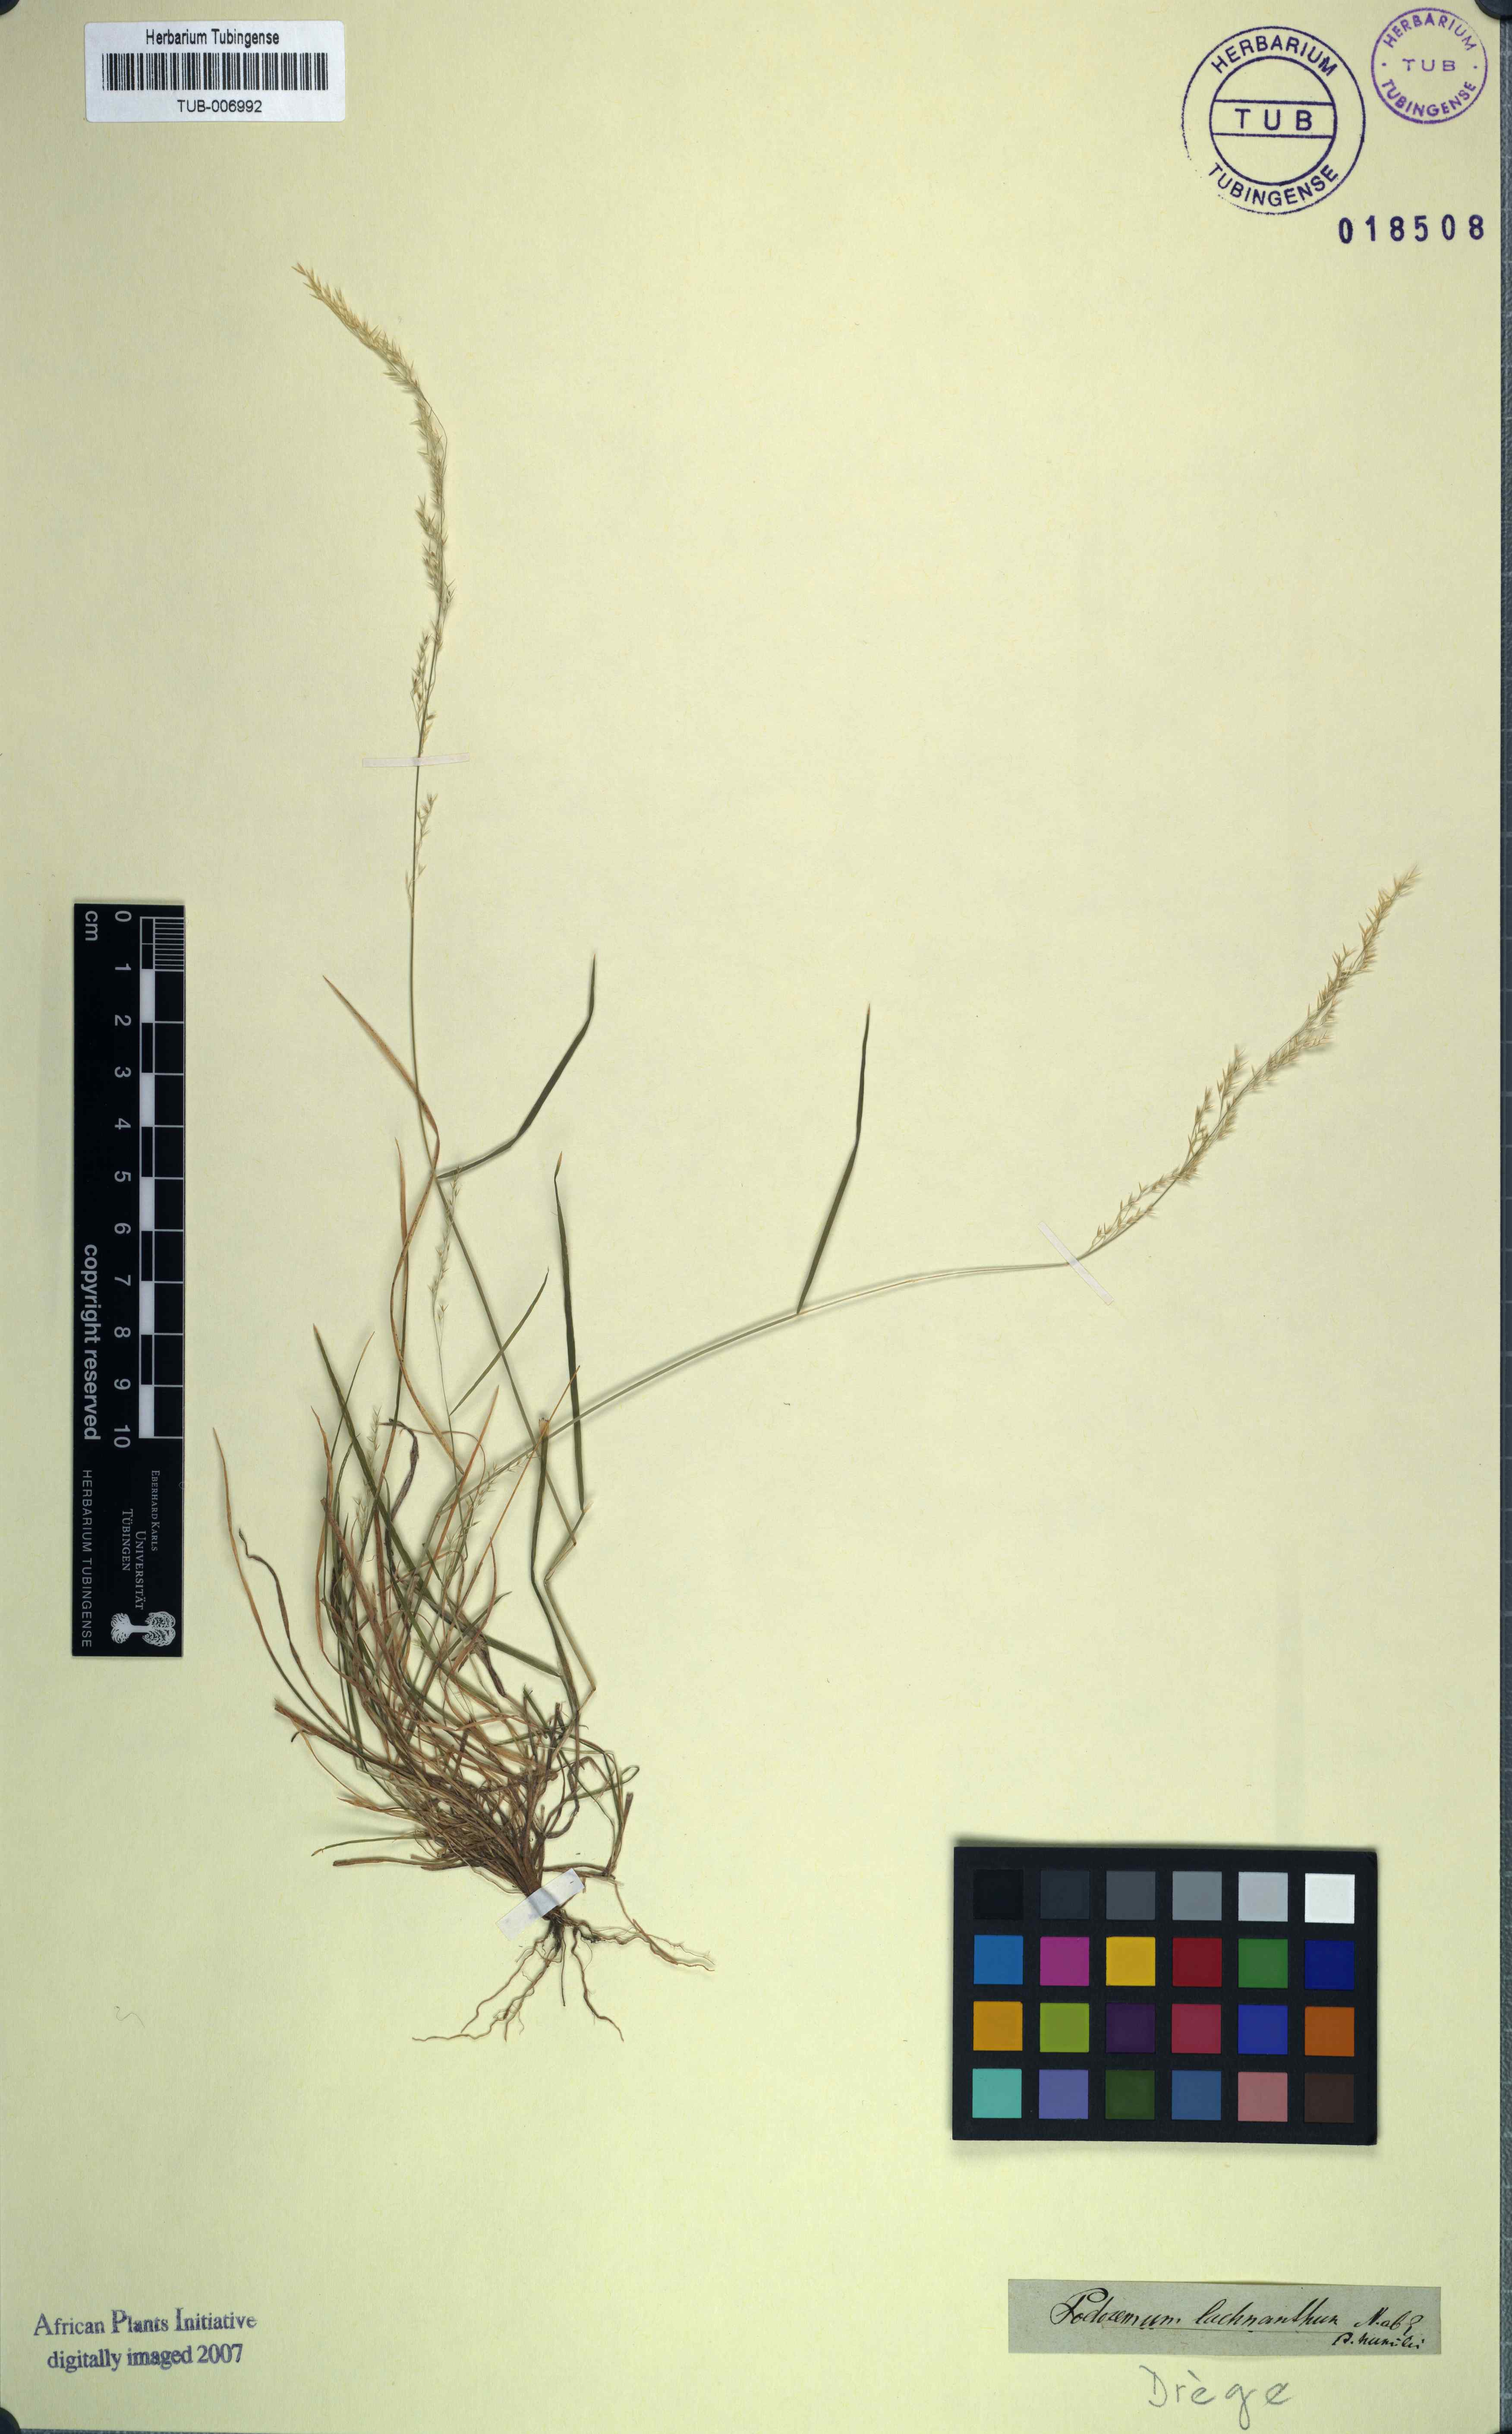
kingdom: Plantae
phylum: Tracheophyta
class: Liliopsida
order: Poales
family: Poaceae
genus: Lachnagrostis
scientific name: Lachnagrostis lachnantha
